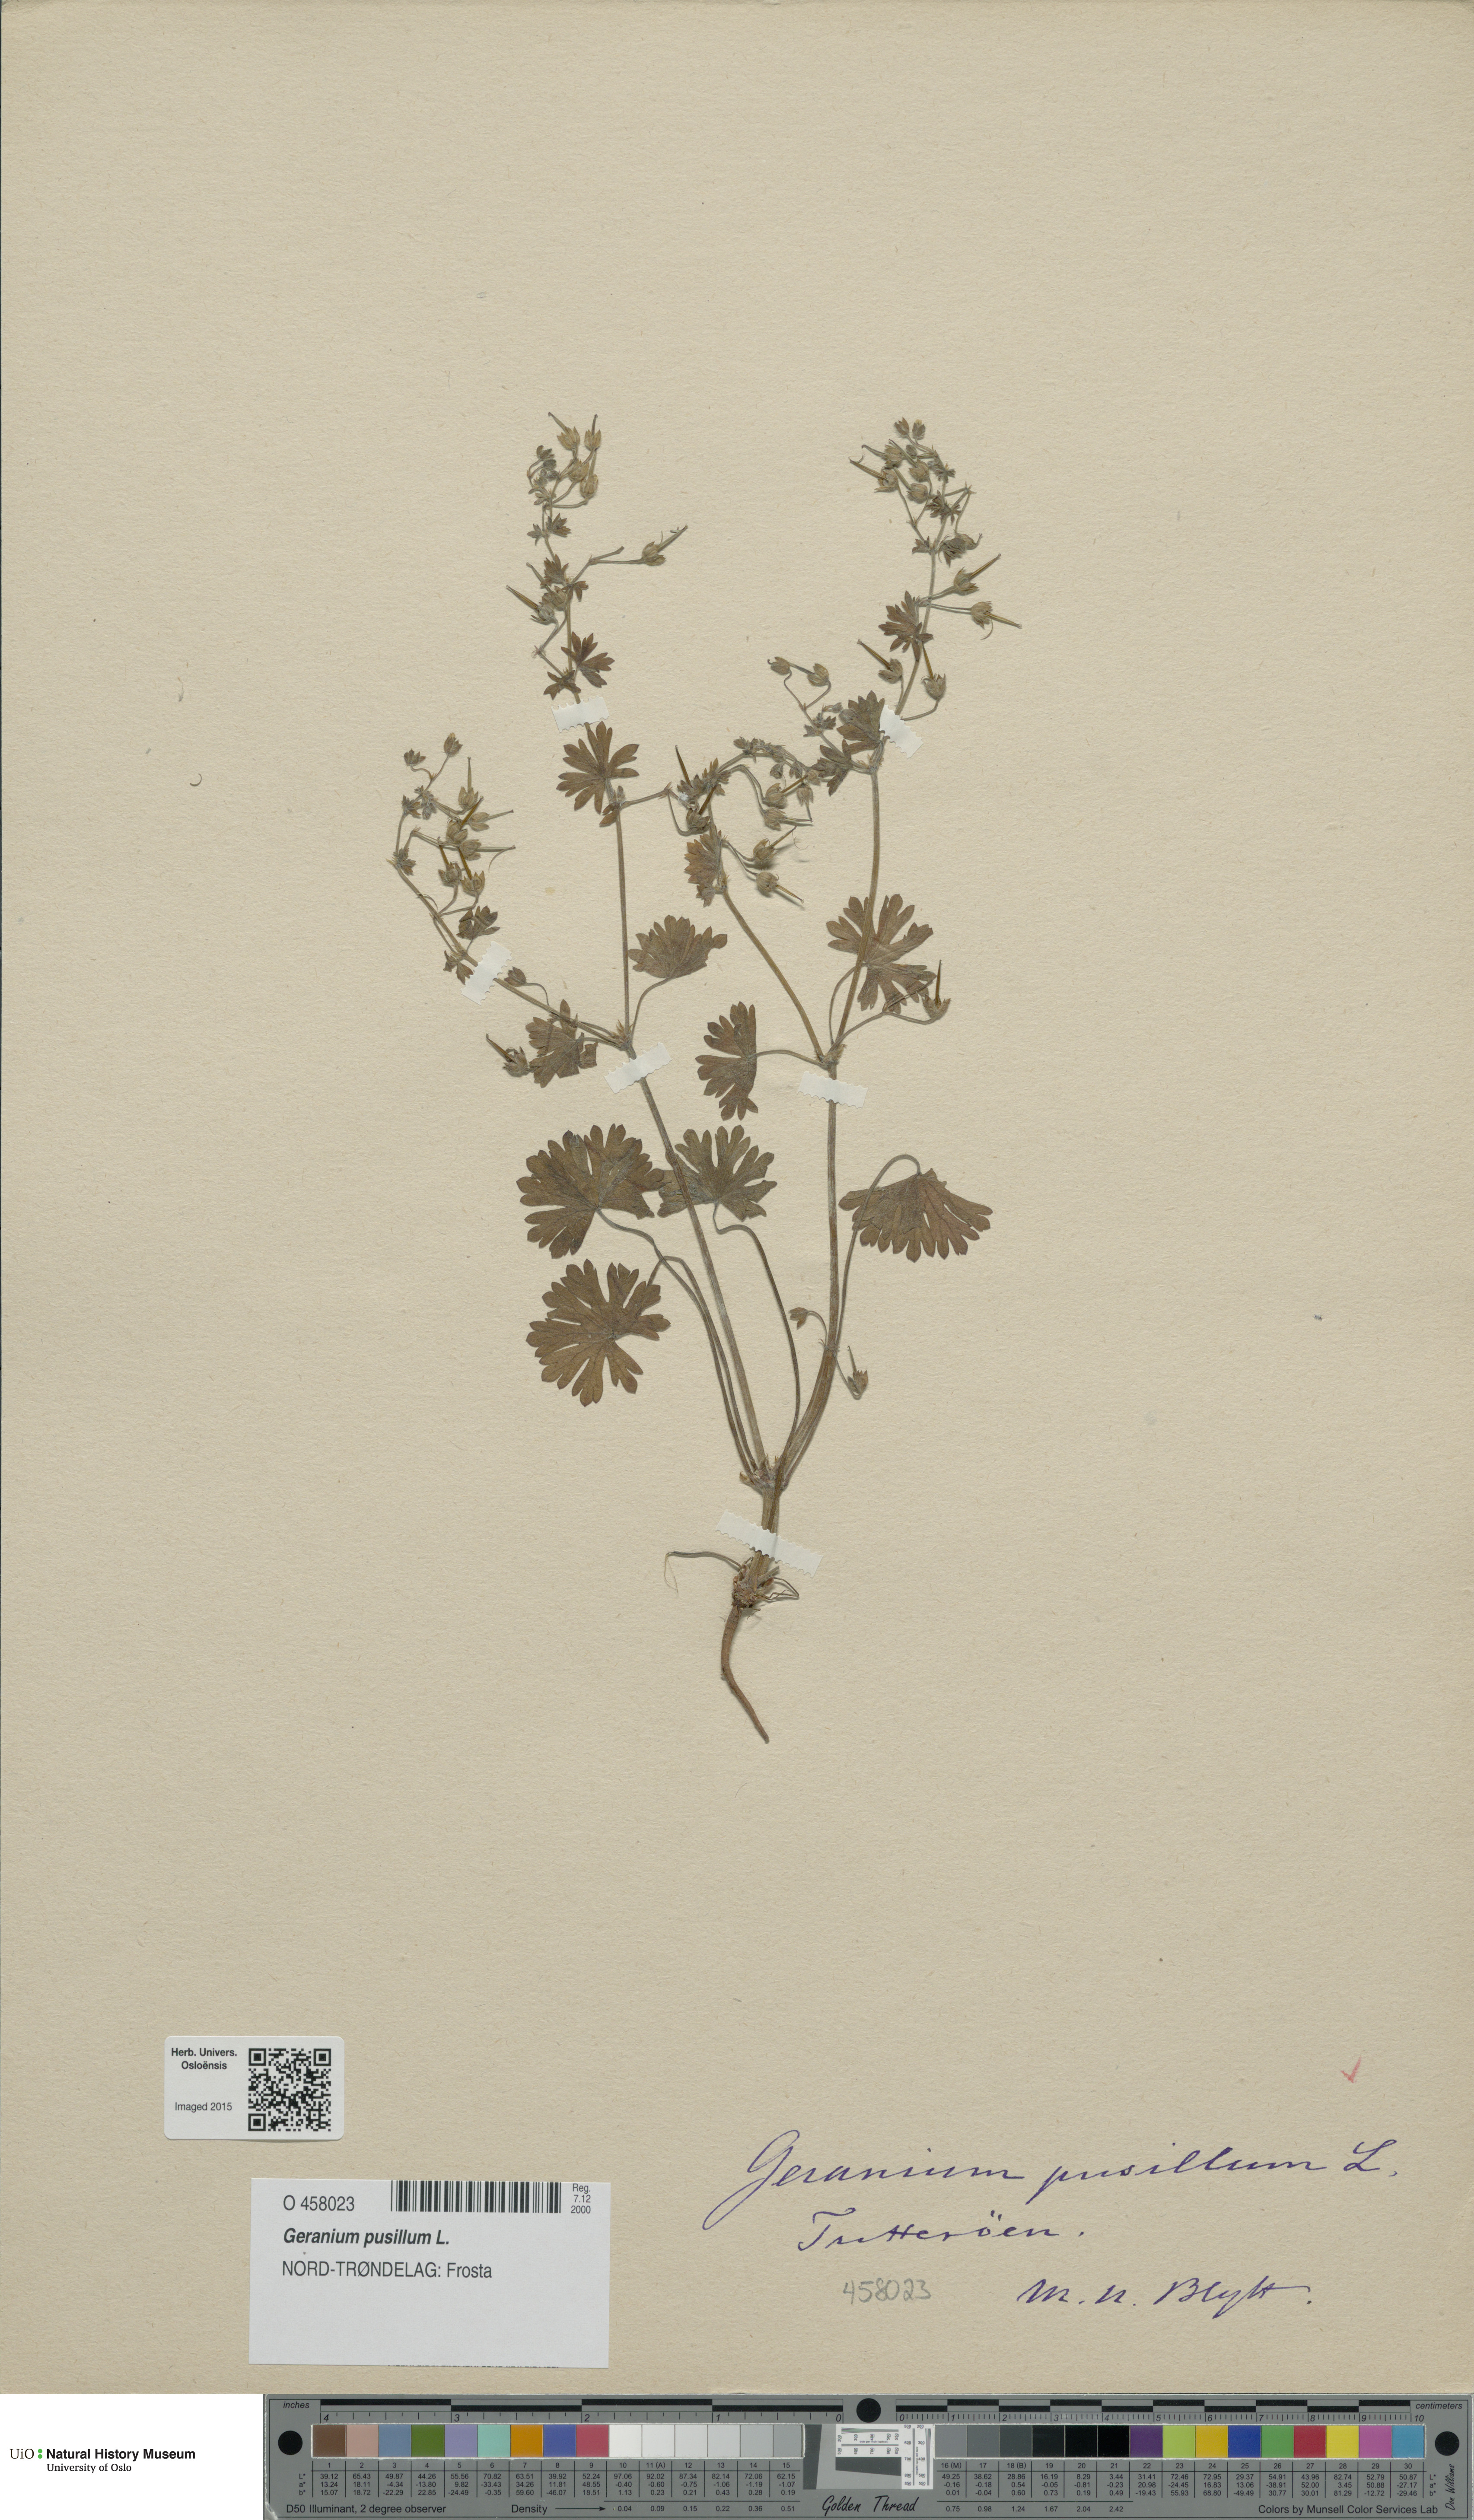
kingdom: Plantae
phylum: Tracheophyta
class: Magnoliopsida
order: Geraniales
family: Geraniaceae
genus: Geranium
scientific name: Geranium pusillum
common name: Small geranium
